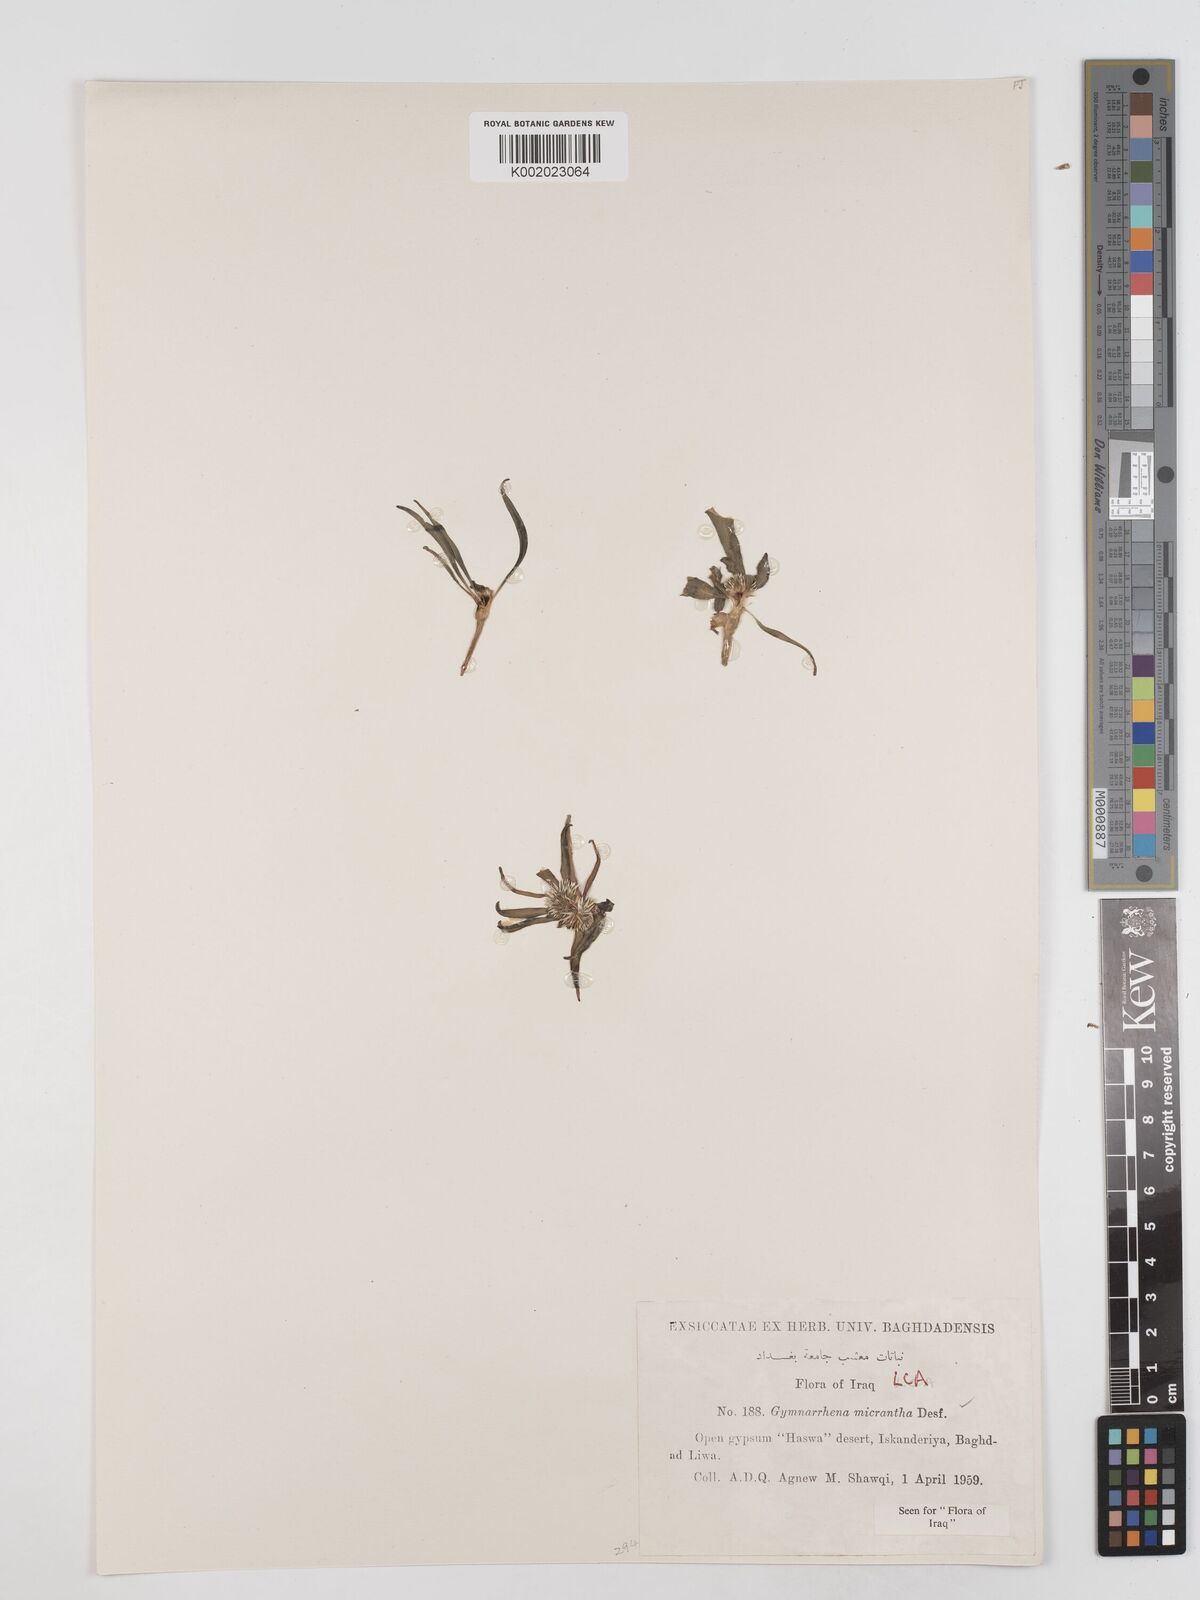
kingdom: Plantae
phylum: Tracheophyta
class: Magnoliopsida
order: Asterales
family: Asteraceae
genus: Gymnarrhena
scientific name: Gymnarrhena micrantha
